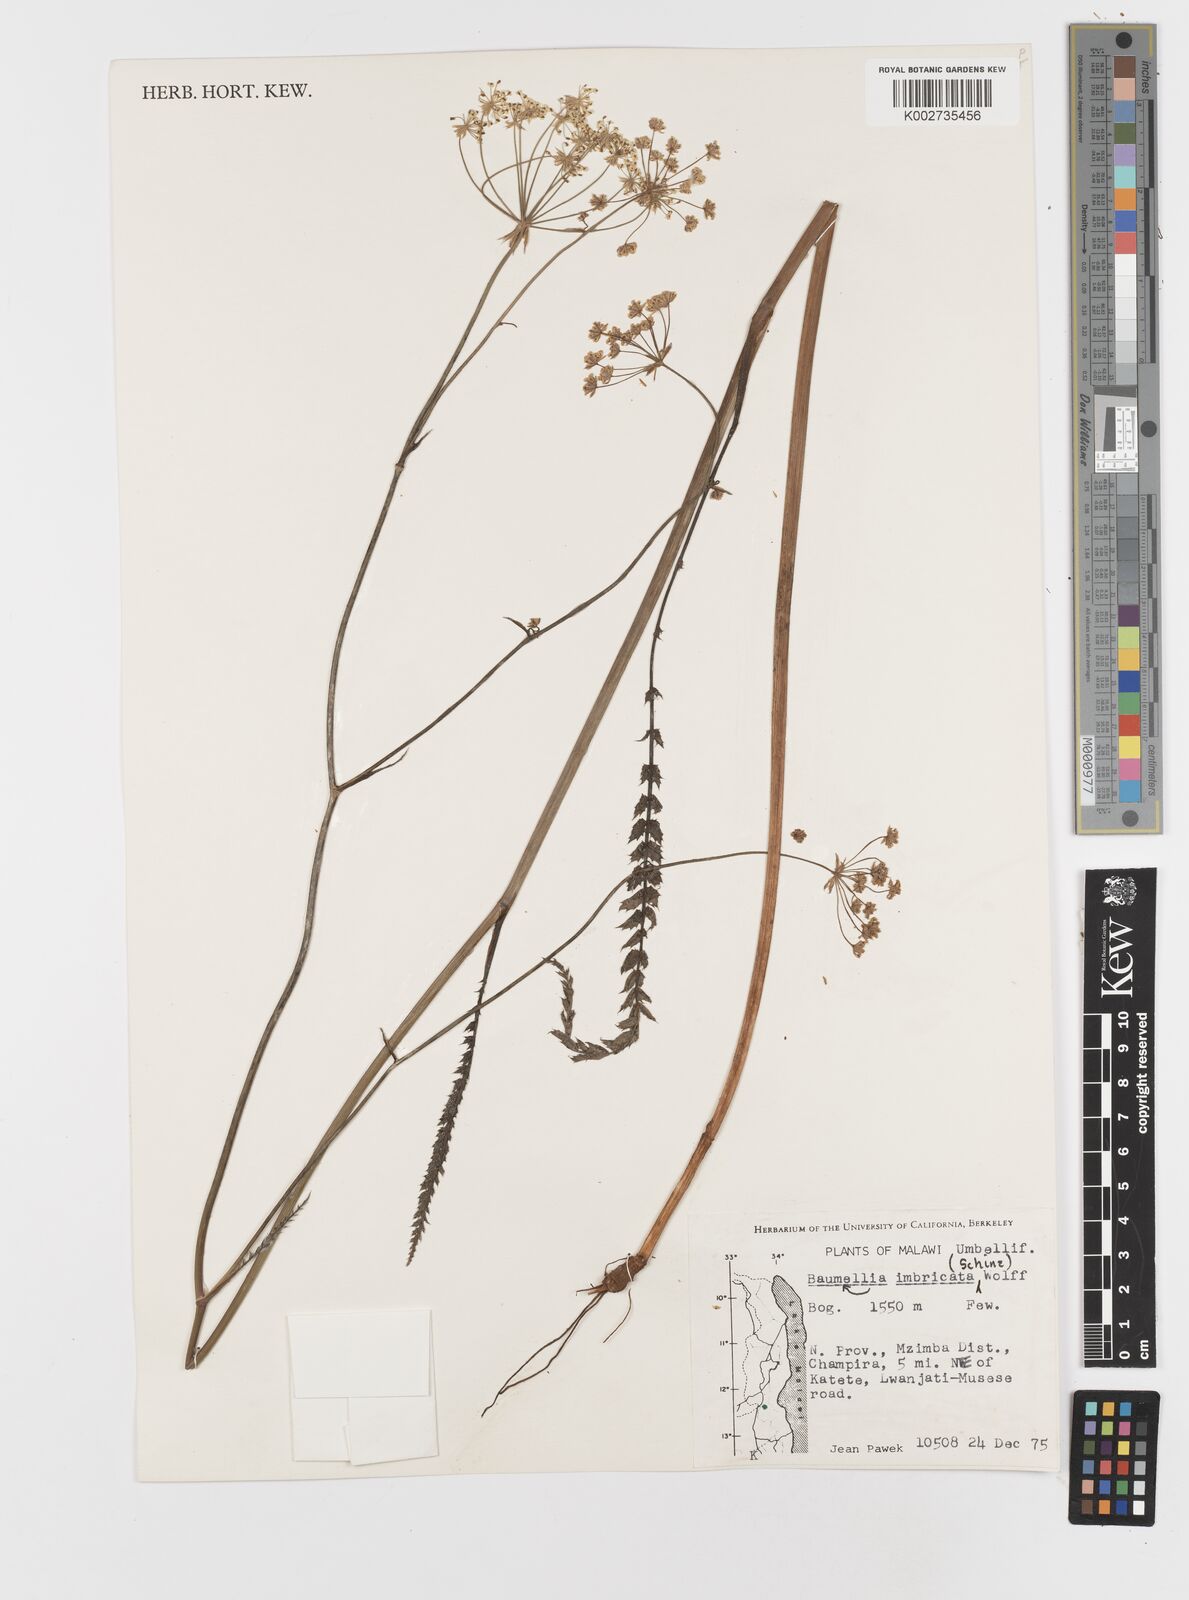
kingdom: Plantae
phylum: Tracheophyta
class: Magnoliopsida
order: Apiales
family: Apiaceae
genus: Berula
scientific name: Berula imbricata
